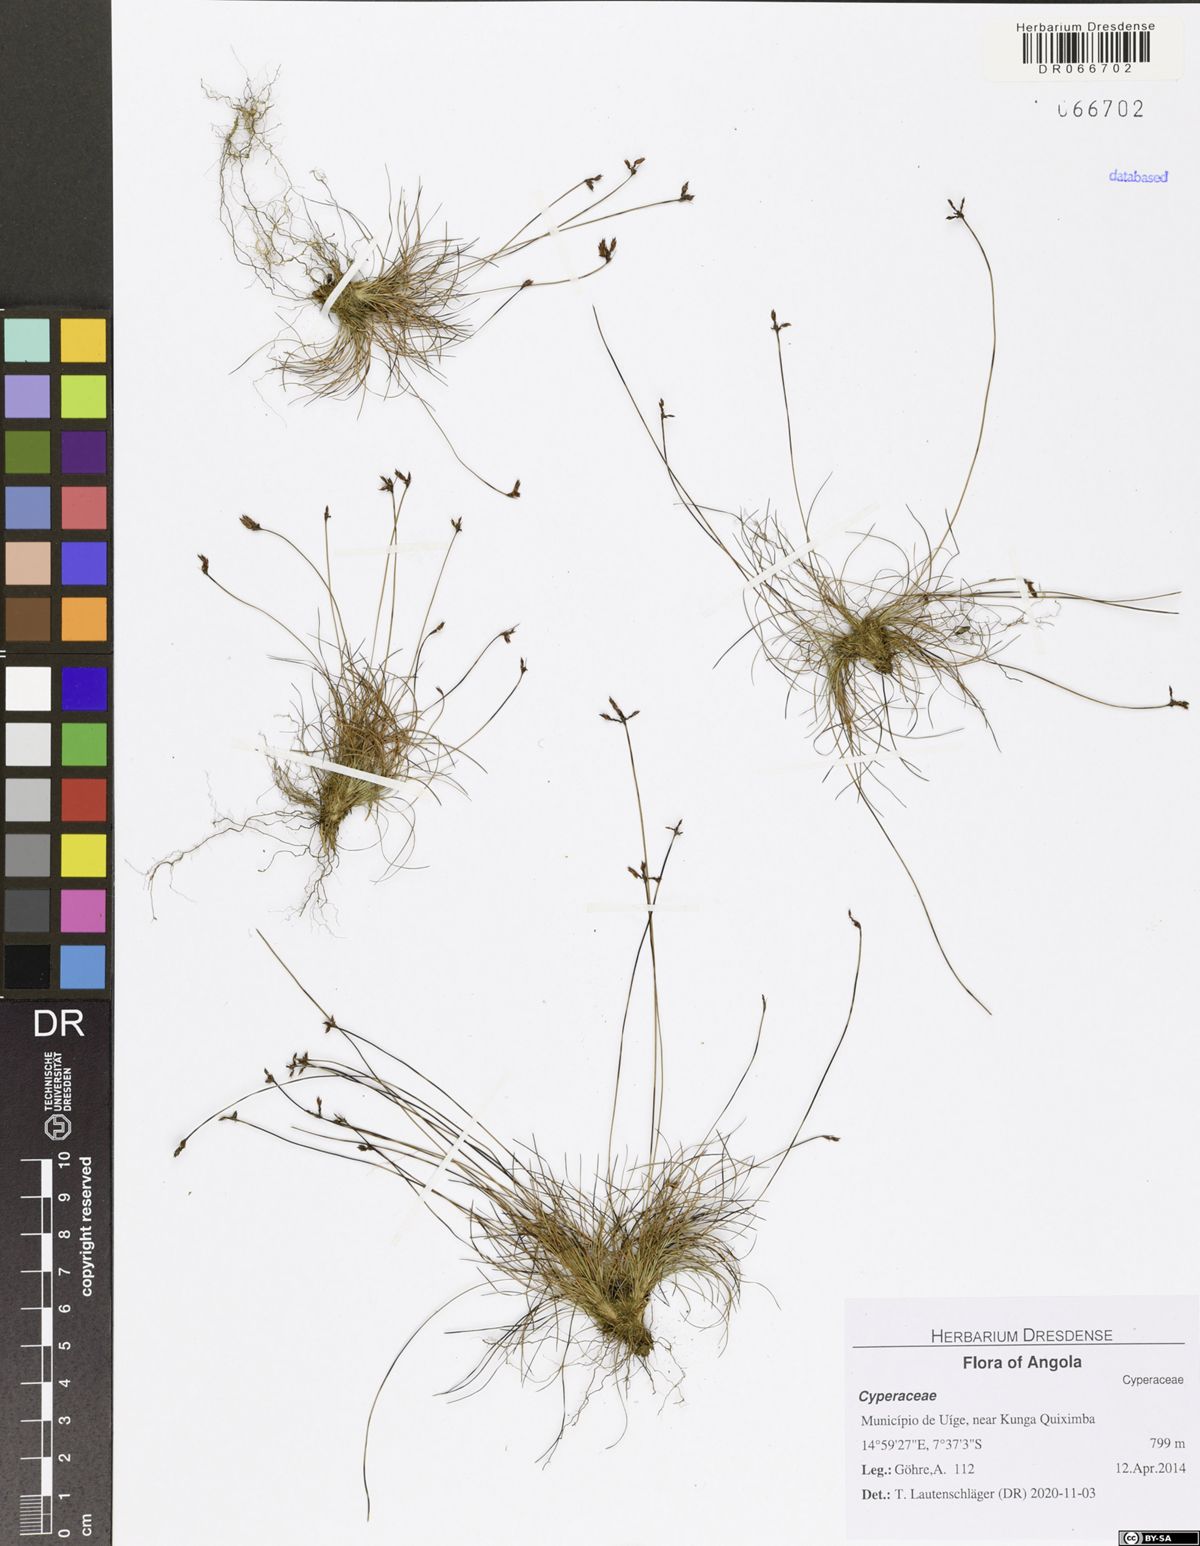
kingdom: Plantae
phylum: Tracheophyta
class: Liliopsida
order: Poales
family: Cyperaceae
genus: Bulbostylis
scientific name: Bulbostylis cardiocarpoides
